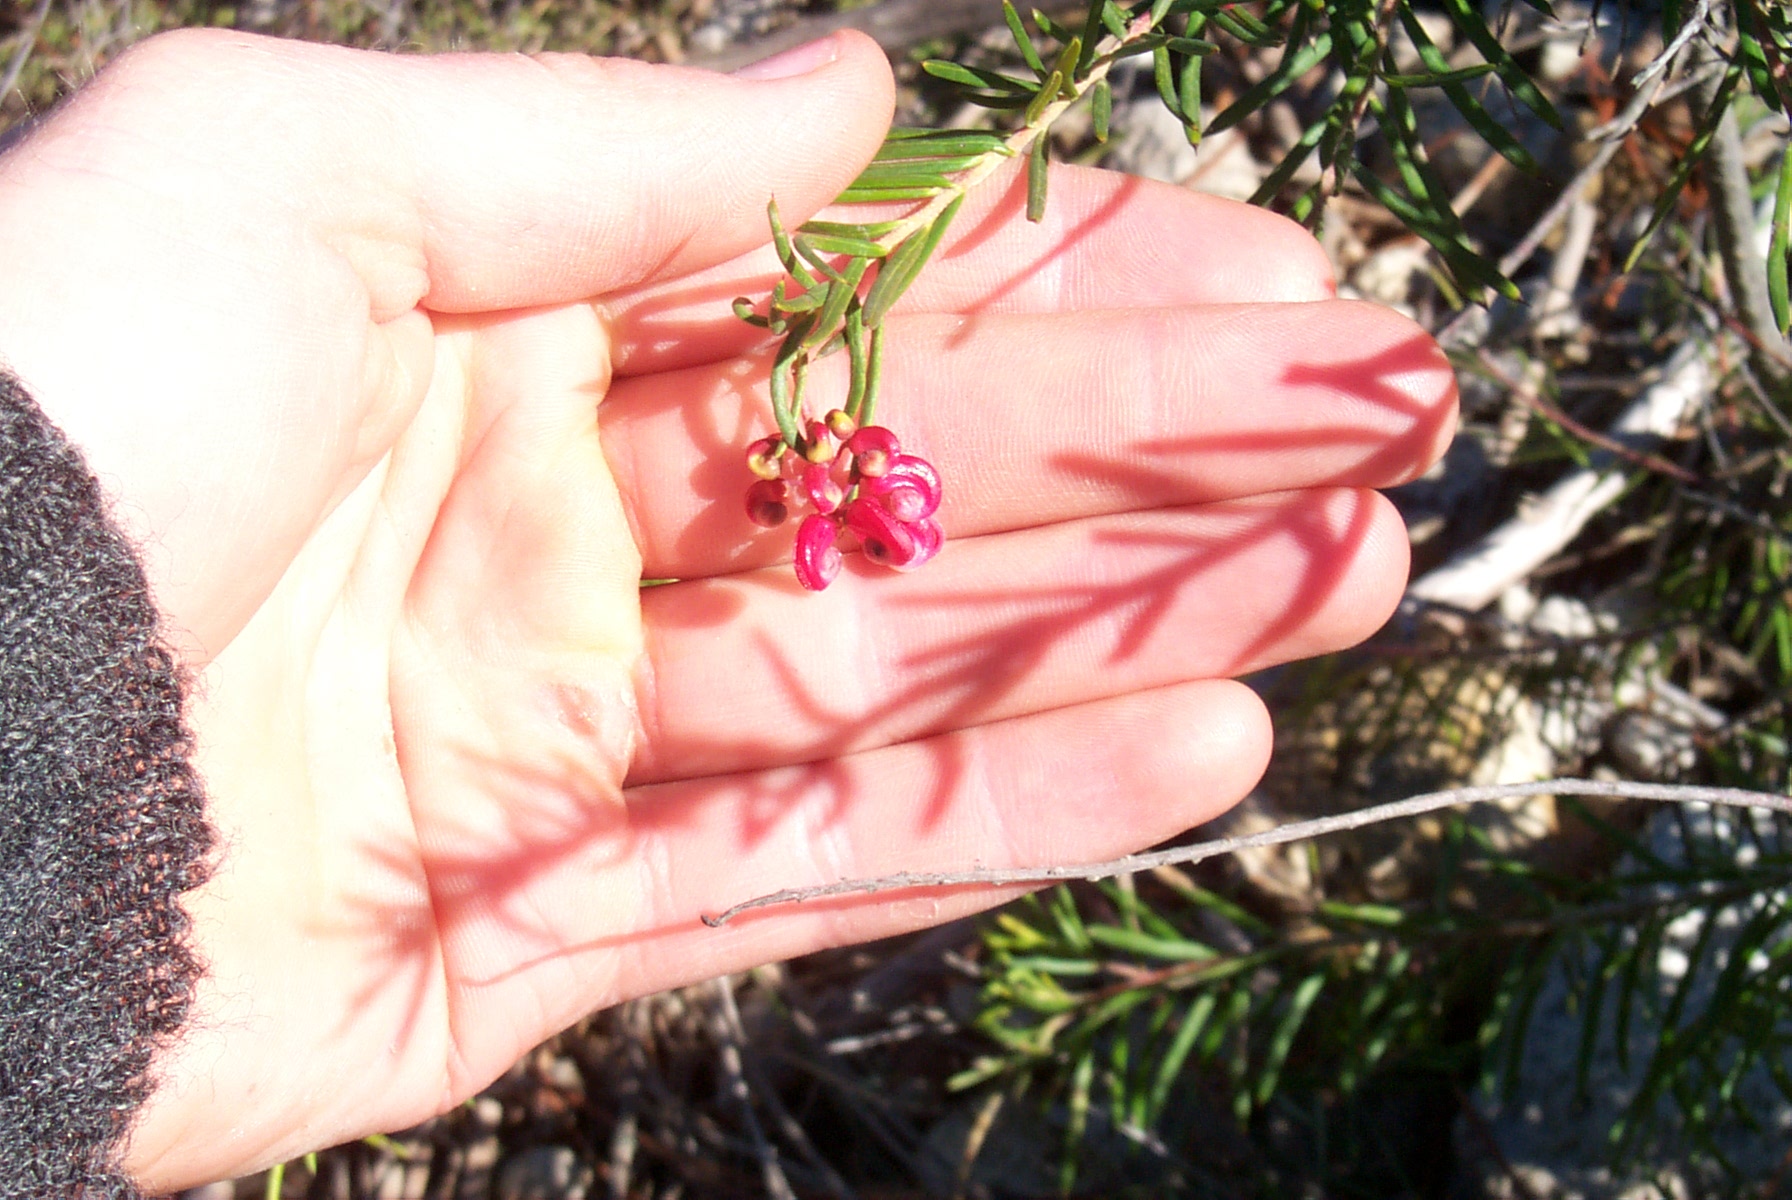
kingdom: Plantae
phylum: Tracheophyta
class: Magnoliopsida
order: Proteales
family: Proteaceae
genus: Grevillea
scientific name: Grevillea spinosa
